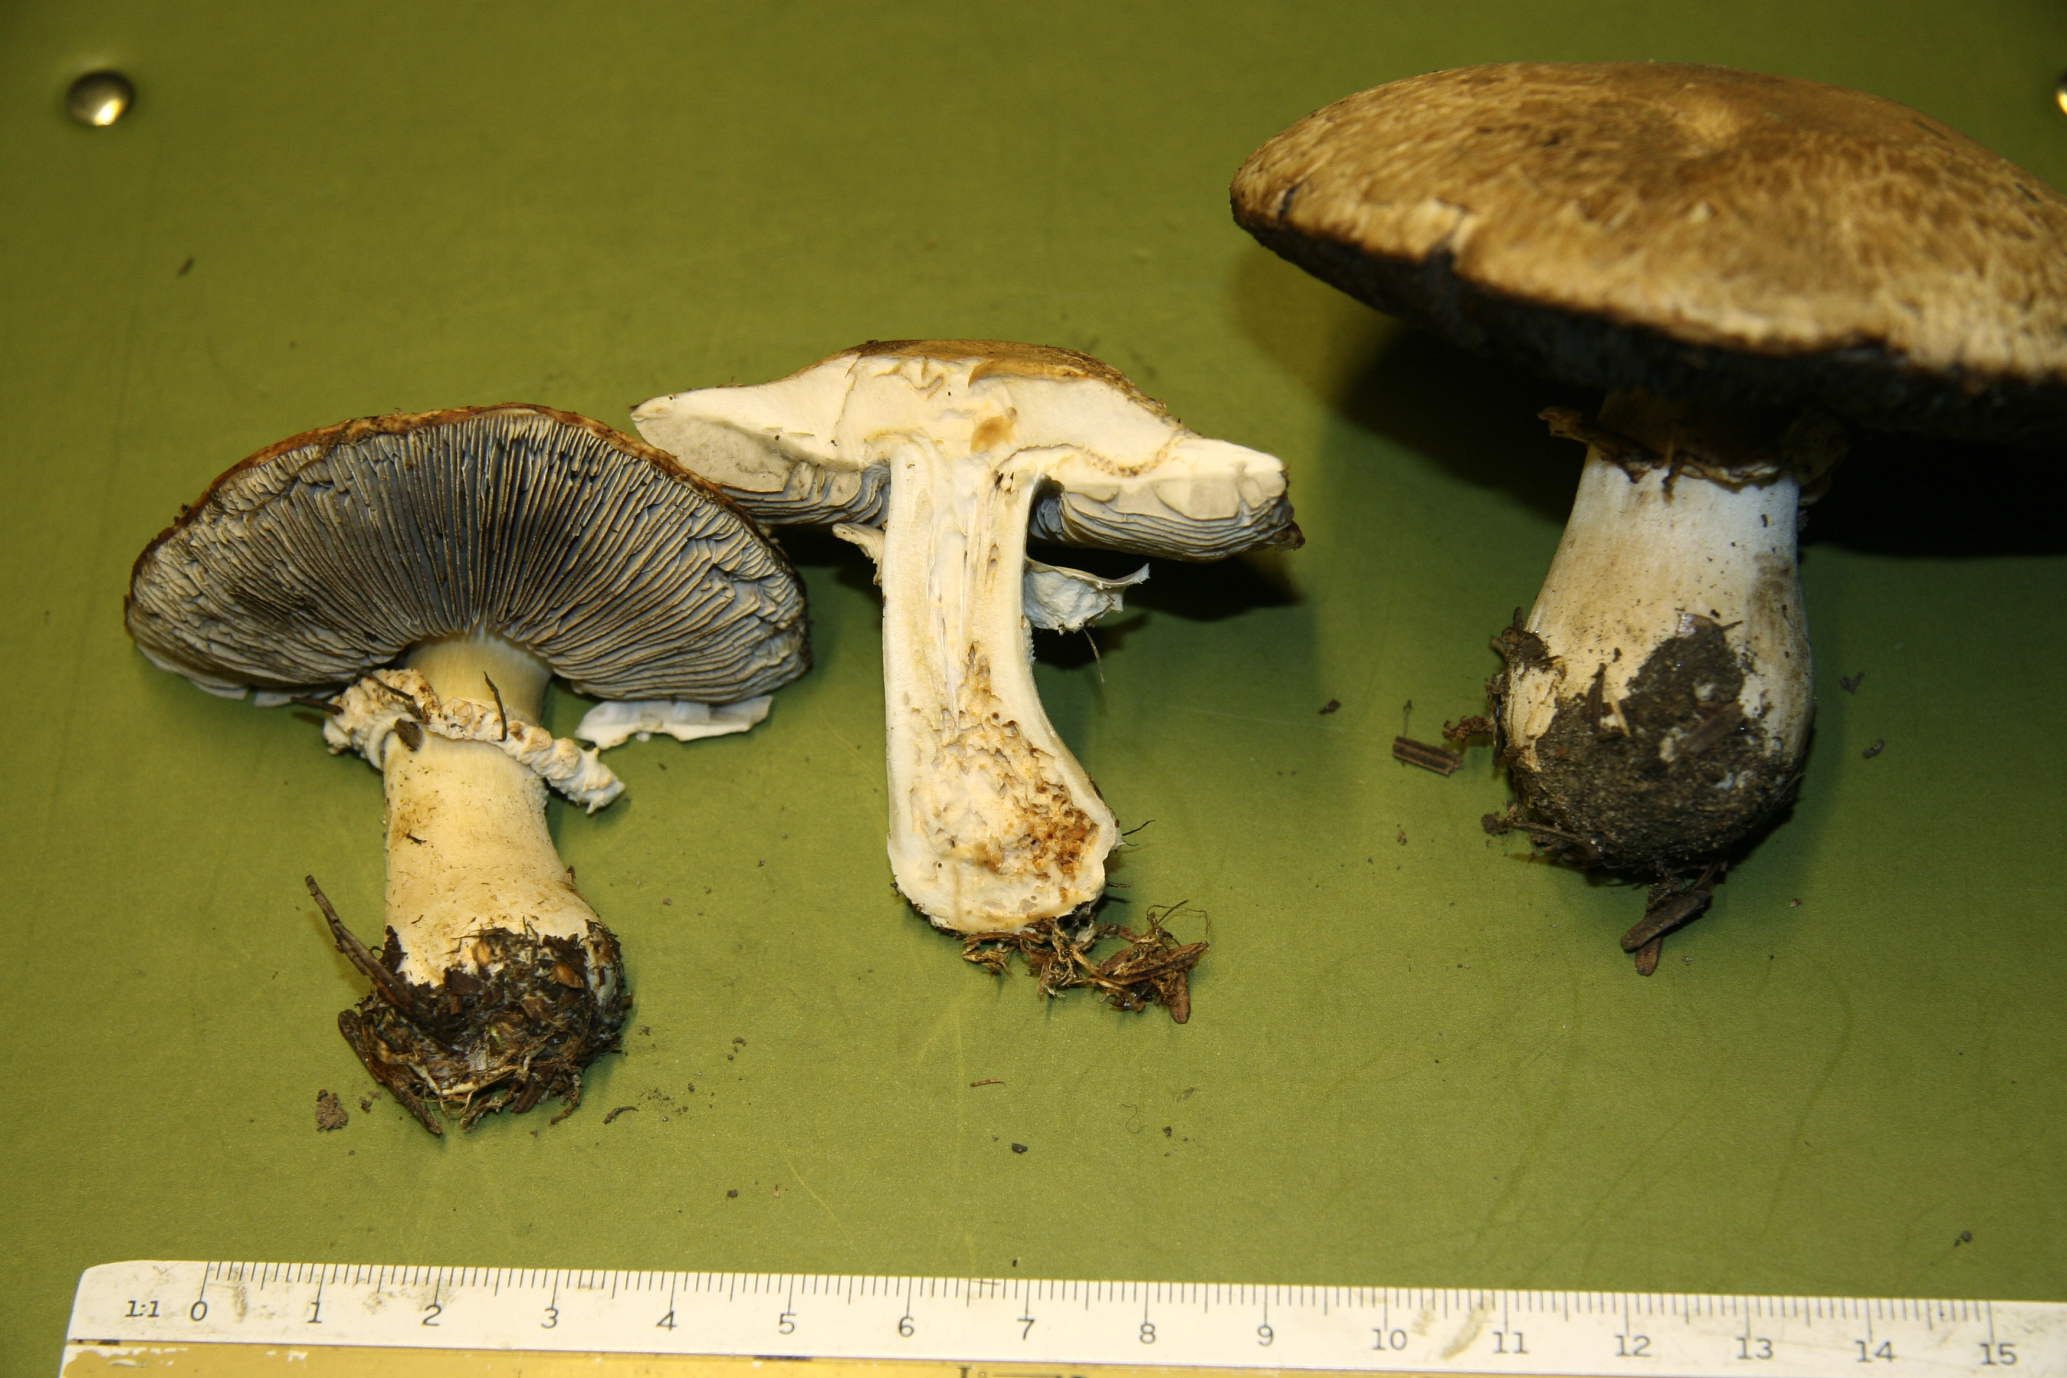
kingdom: Fungi
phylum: Basidiomycota
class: Agaricomycetes
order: Agaricales
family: Agaricaceae
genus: Agaricus
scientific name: Agaricus augustus
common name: prægtig champignon
